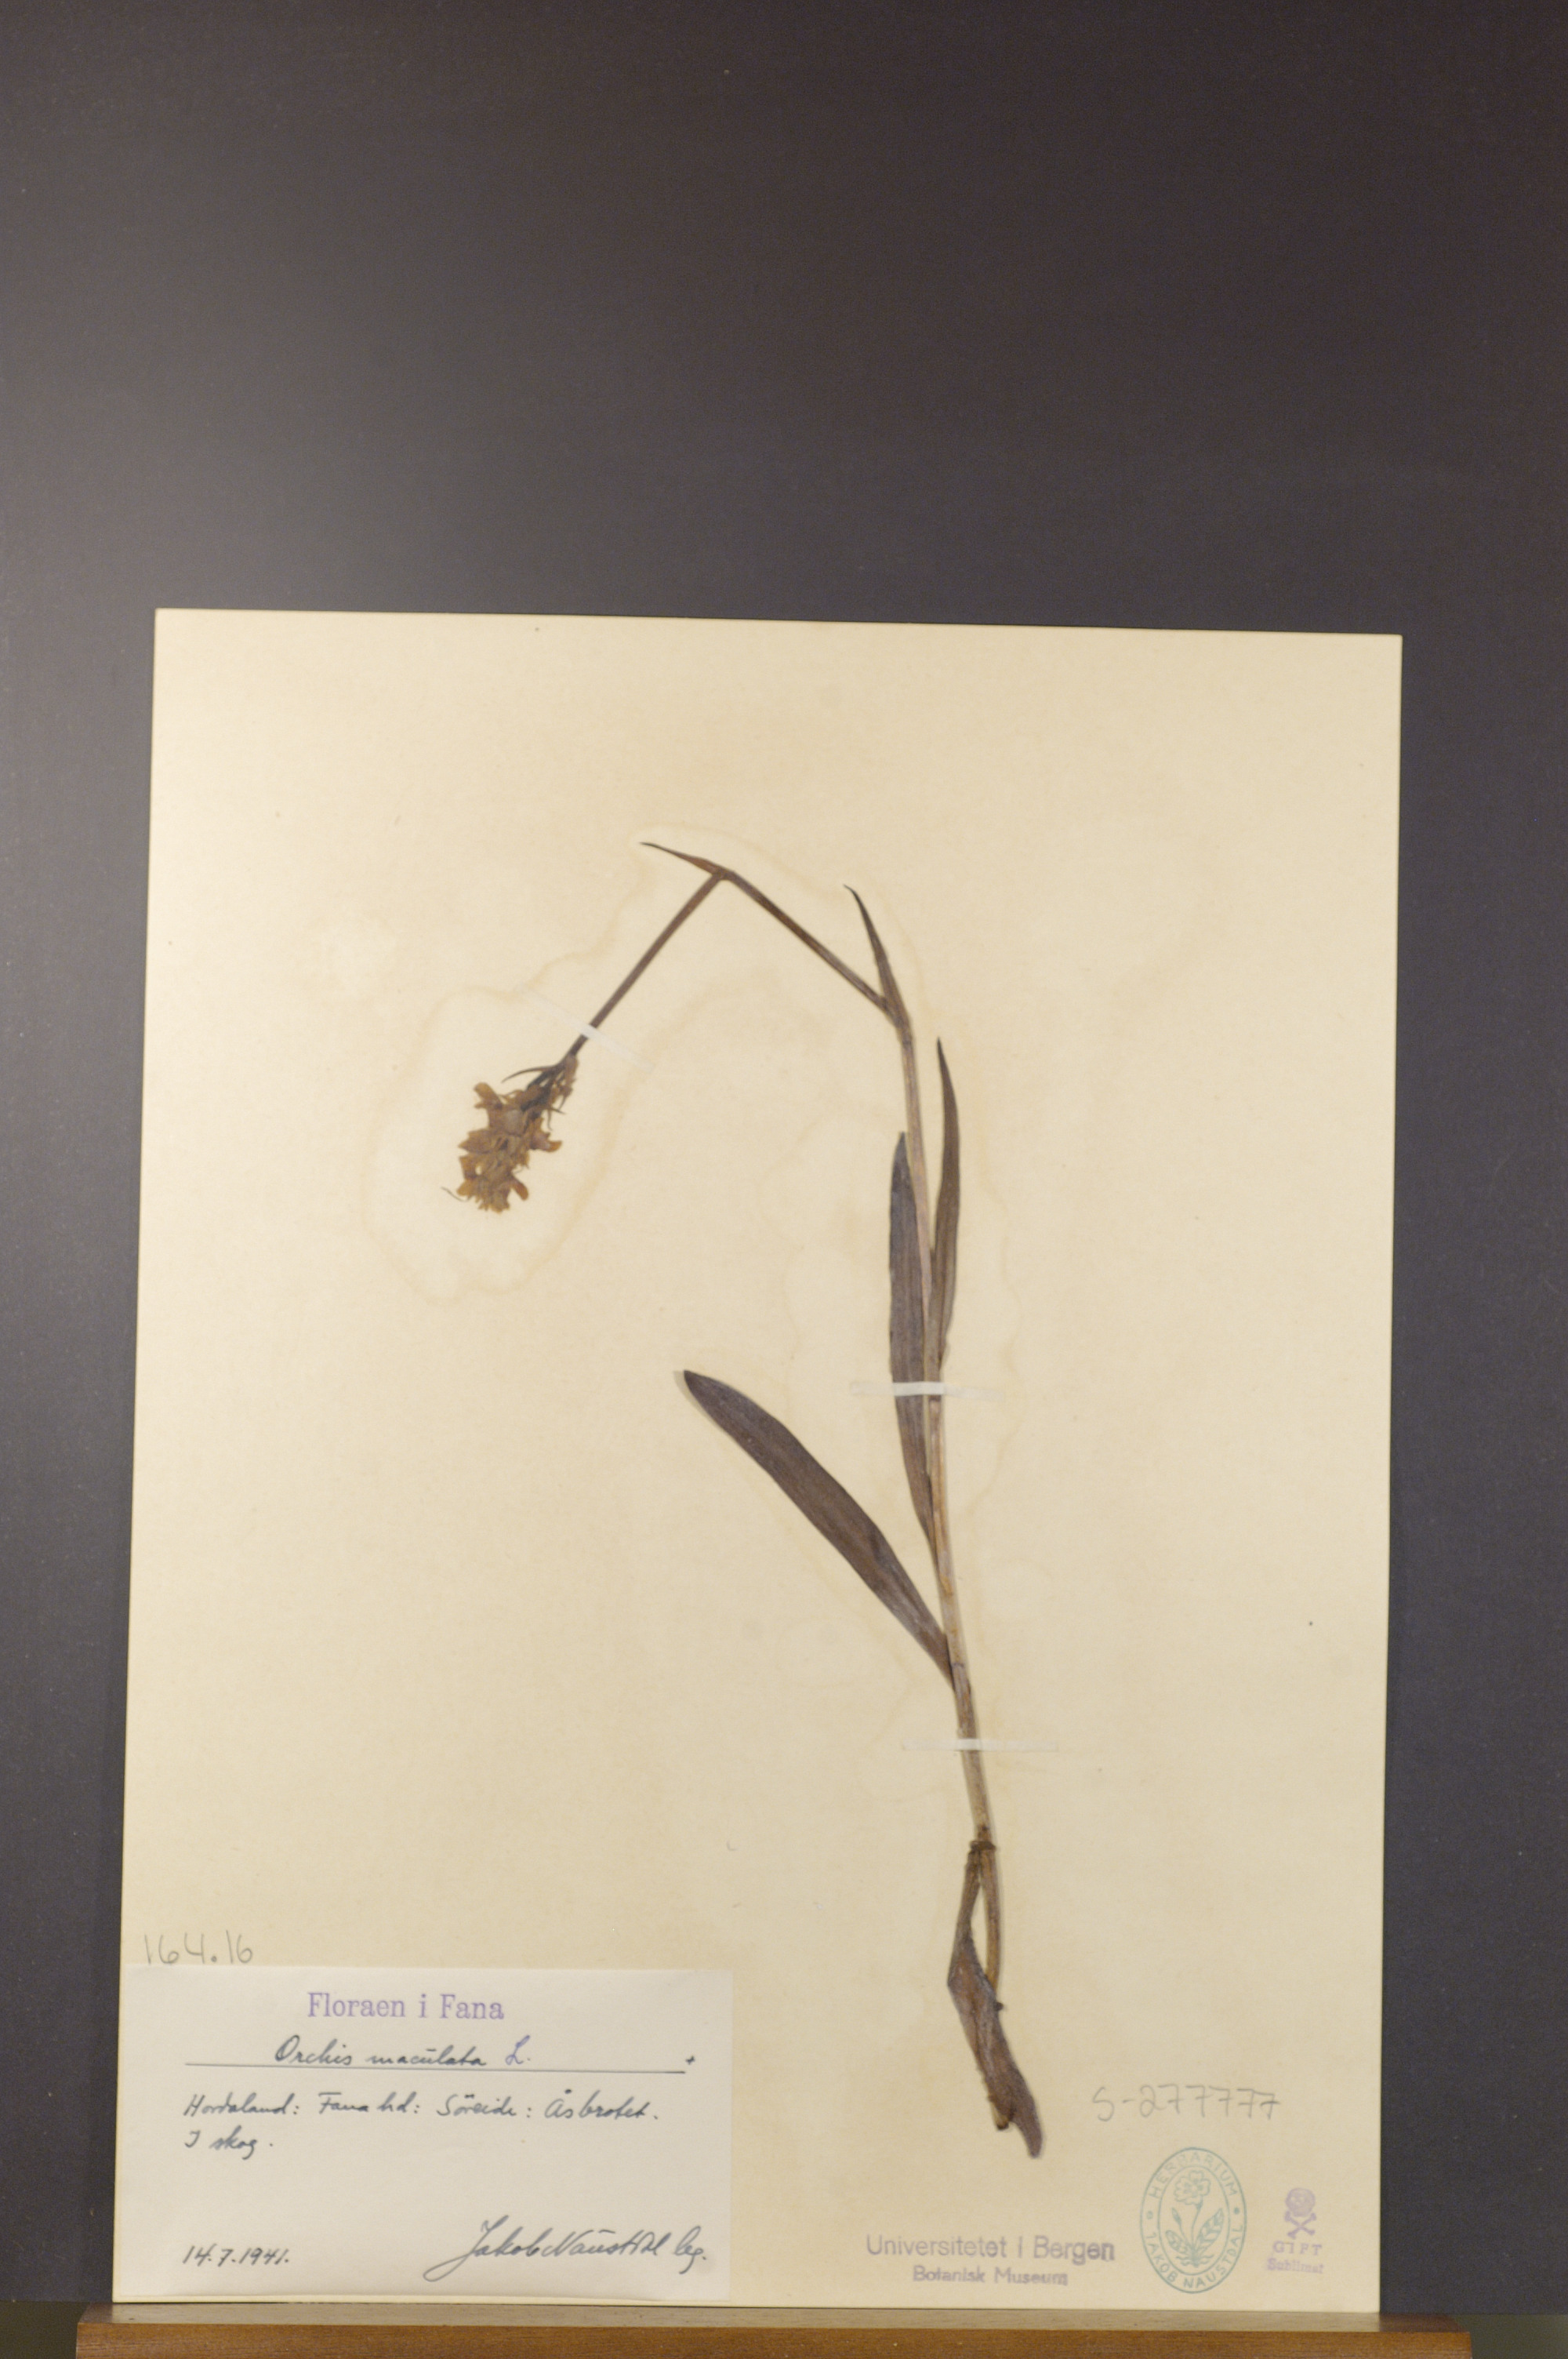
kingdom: Plantae
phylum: Tracheophyta
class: Liliopsida
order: Asparagales
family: Orchidaceae
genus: Dactylorhiza
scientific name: Dactylorhiza maculata
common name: Heath spotted-orchid
